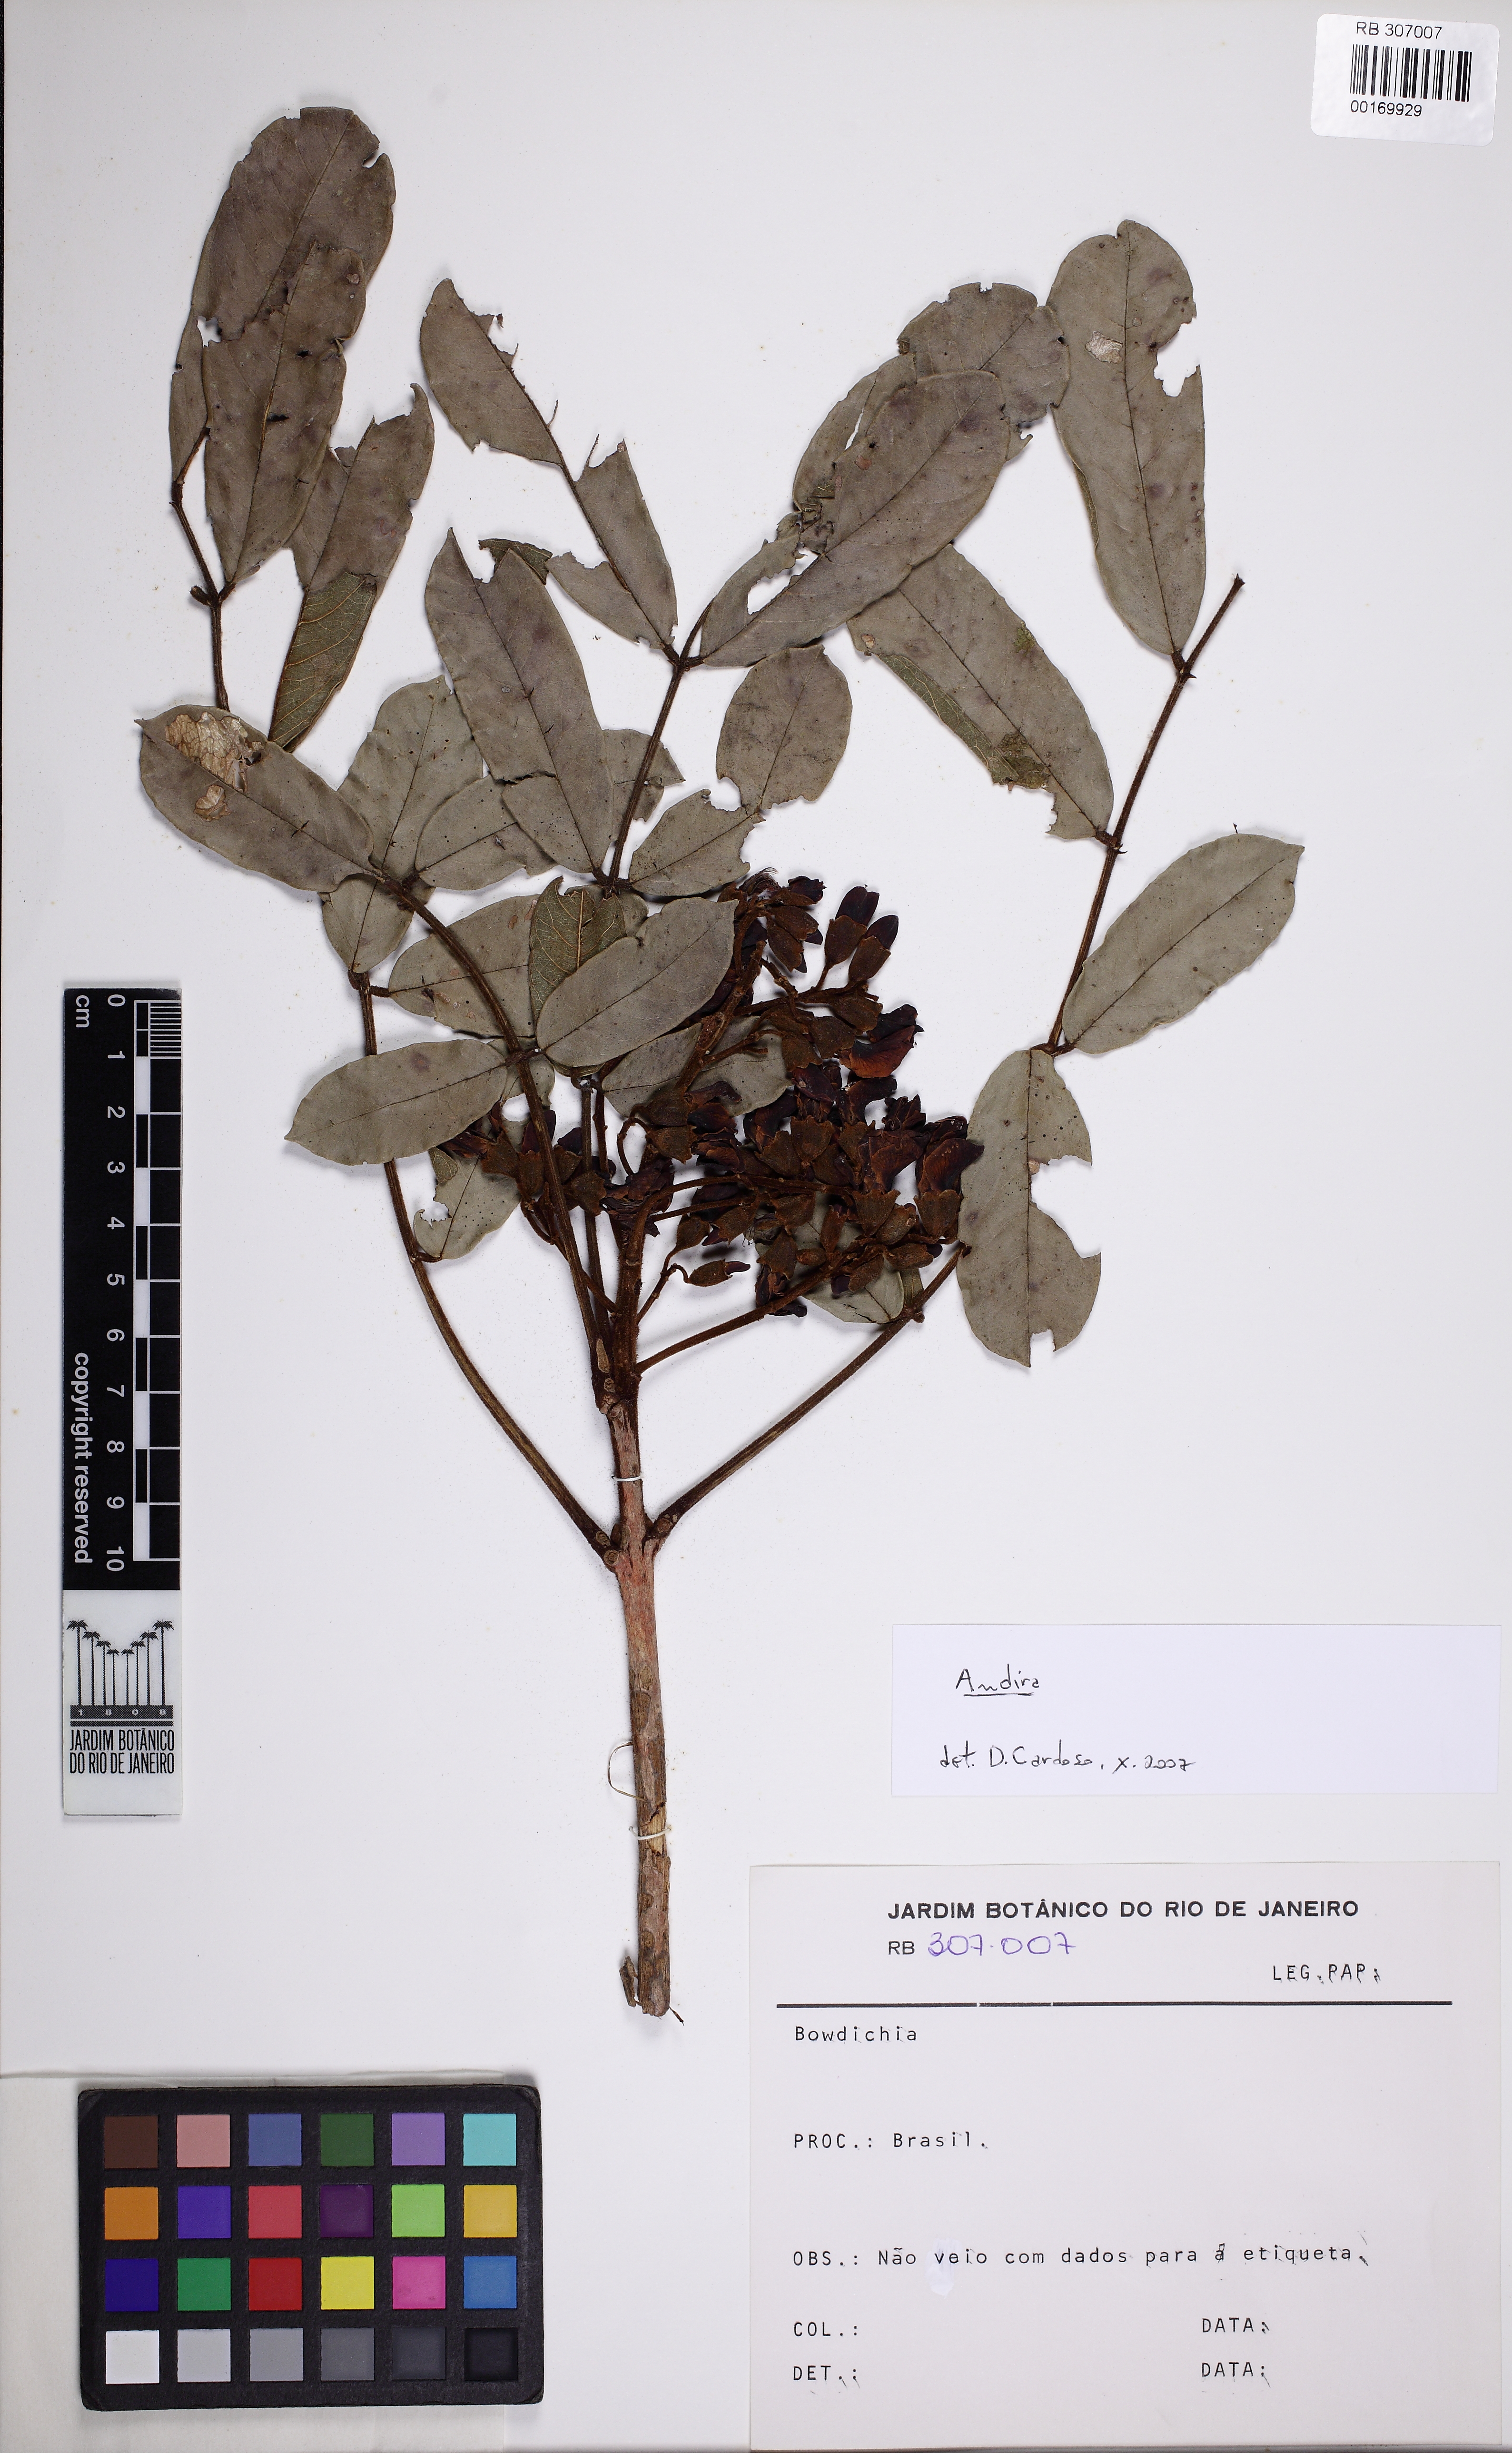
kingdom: Plantae
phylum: Tracheophyta
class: Magnoliopsida
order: Fabales
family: Fabaceae
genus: Andira
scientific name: Andira
